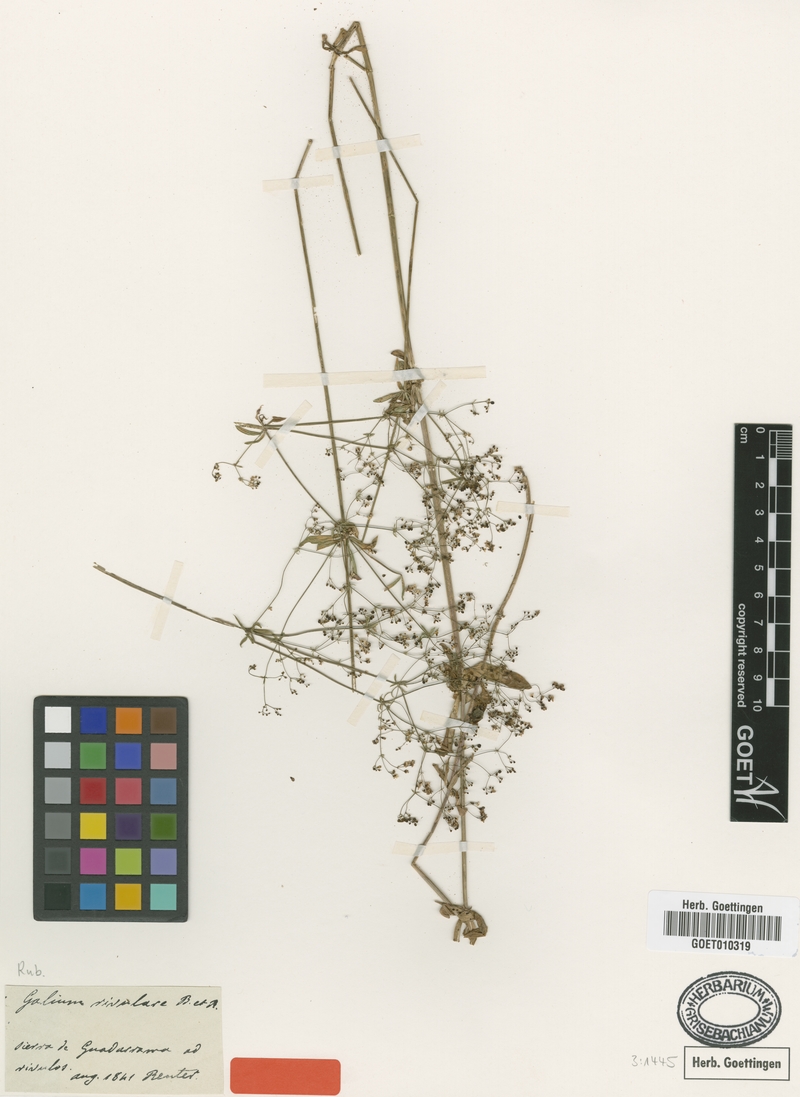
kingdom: Plantae
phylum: Tracheophyta
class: Magnoliopsida
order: Gentianales
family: Rubiaceae
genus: Galium
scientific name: Galium papillosum
